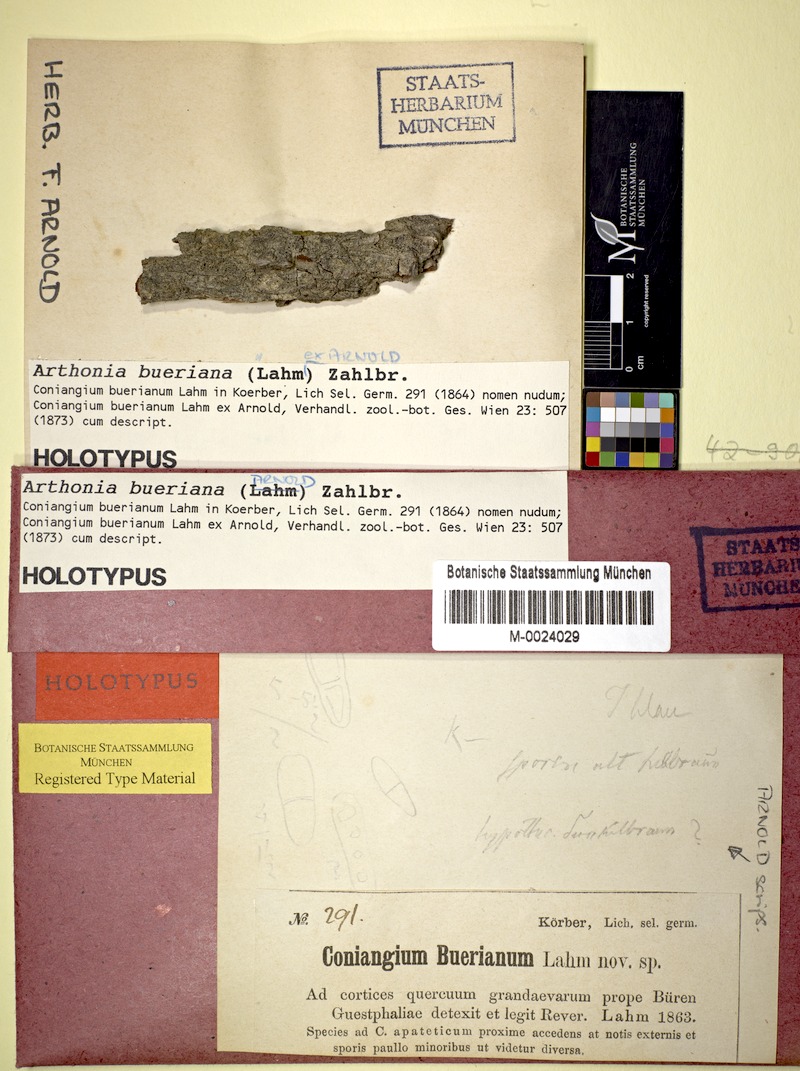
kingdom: Fungi
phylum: Ascomycota
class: Arthoniomycetes
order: Arthoniales
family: Arthoniaceae
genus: Arthonia
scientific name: Arthonia bueriana
